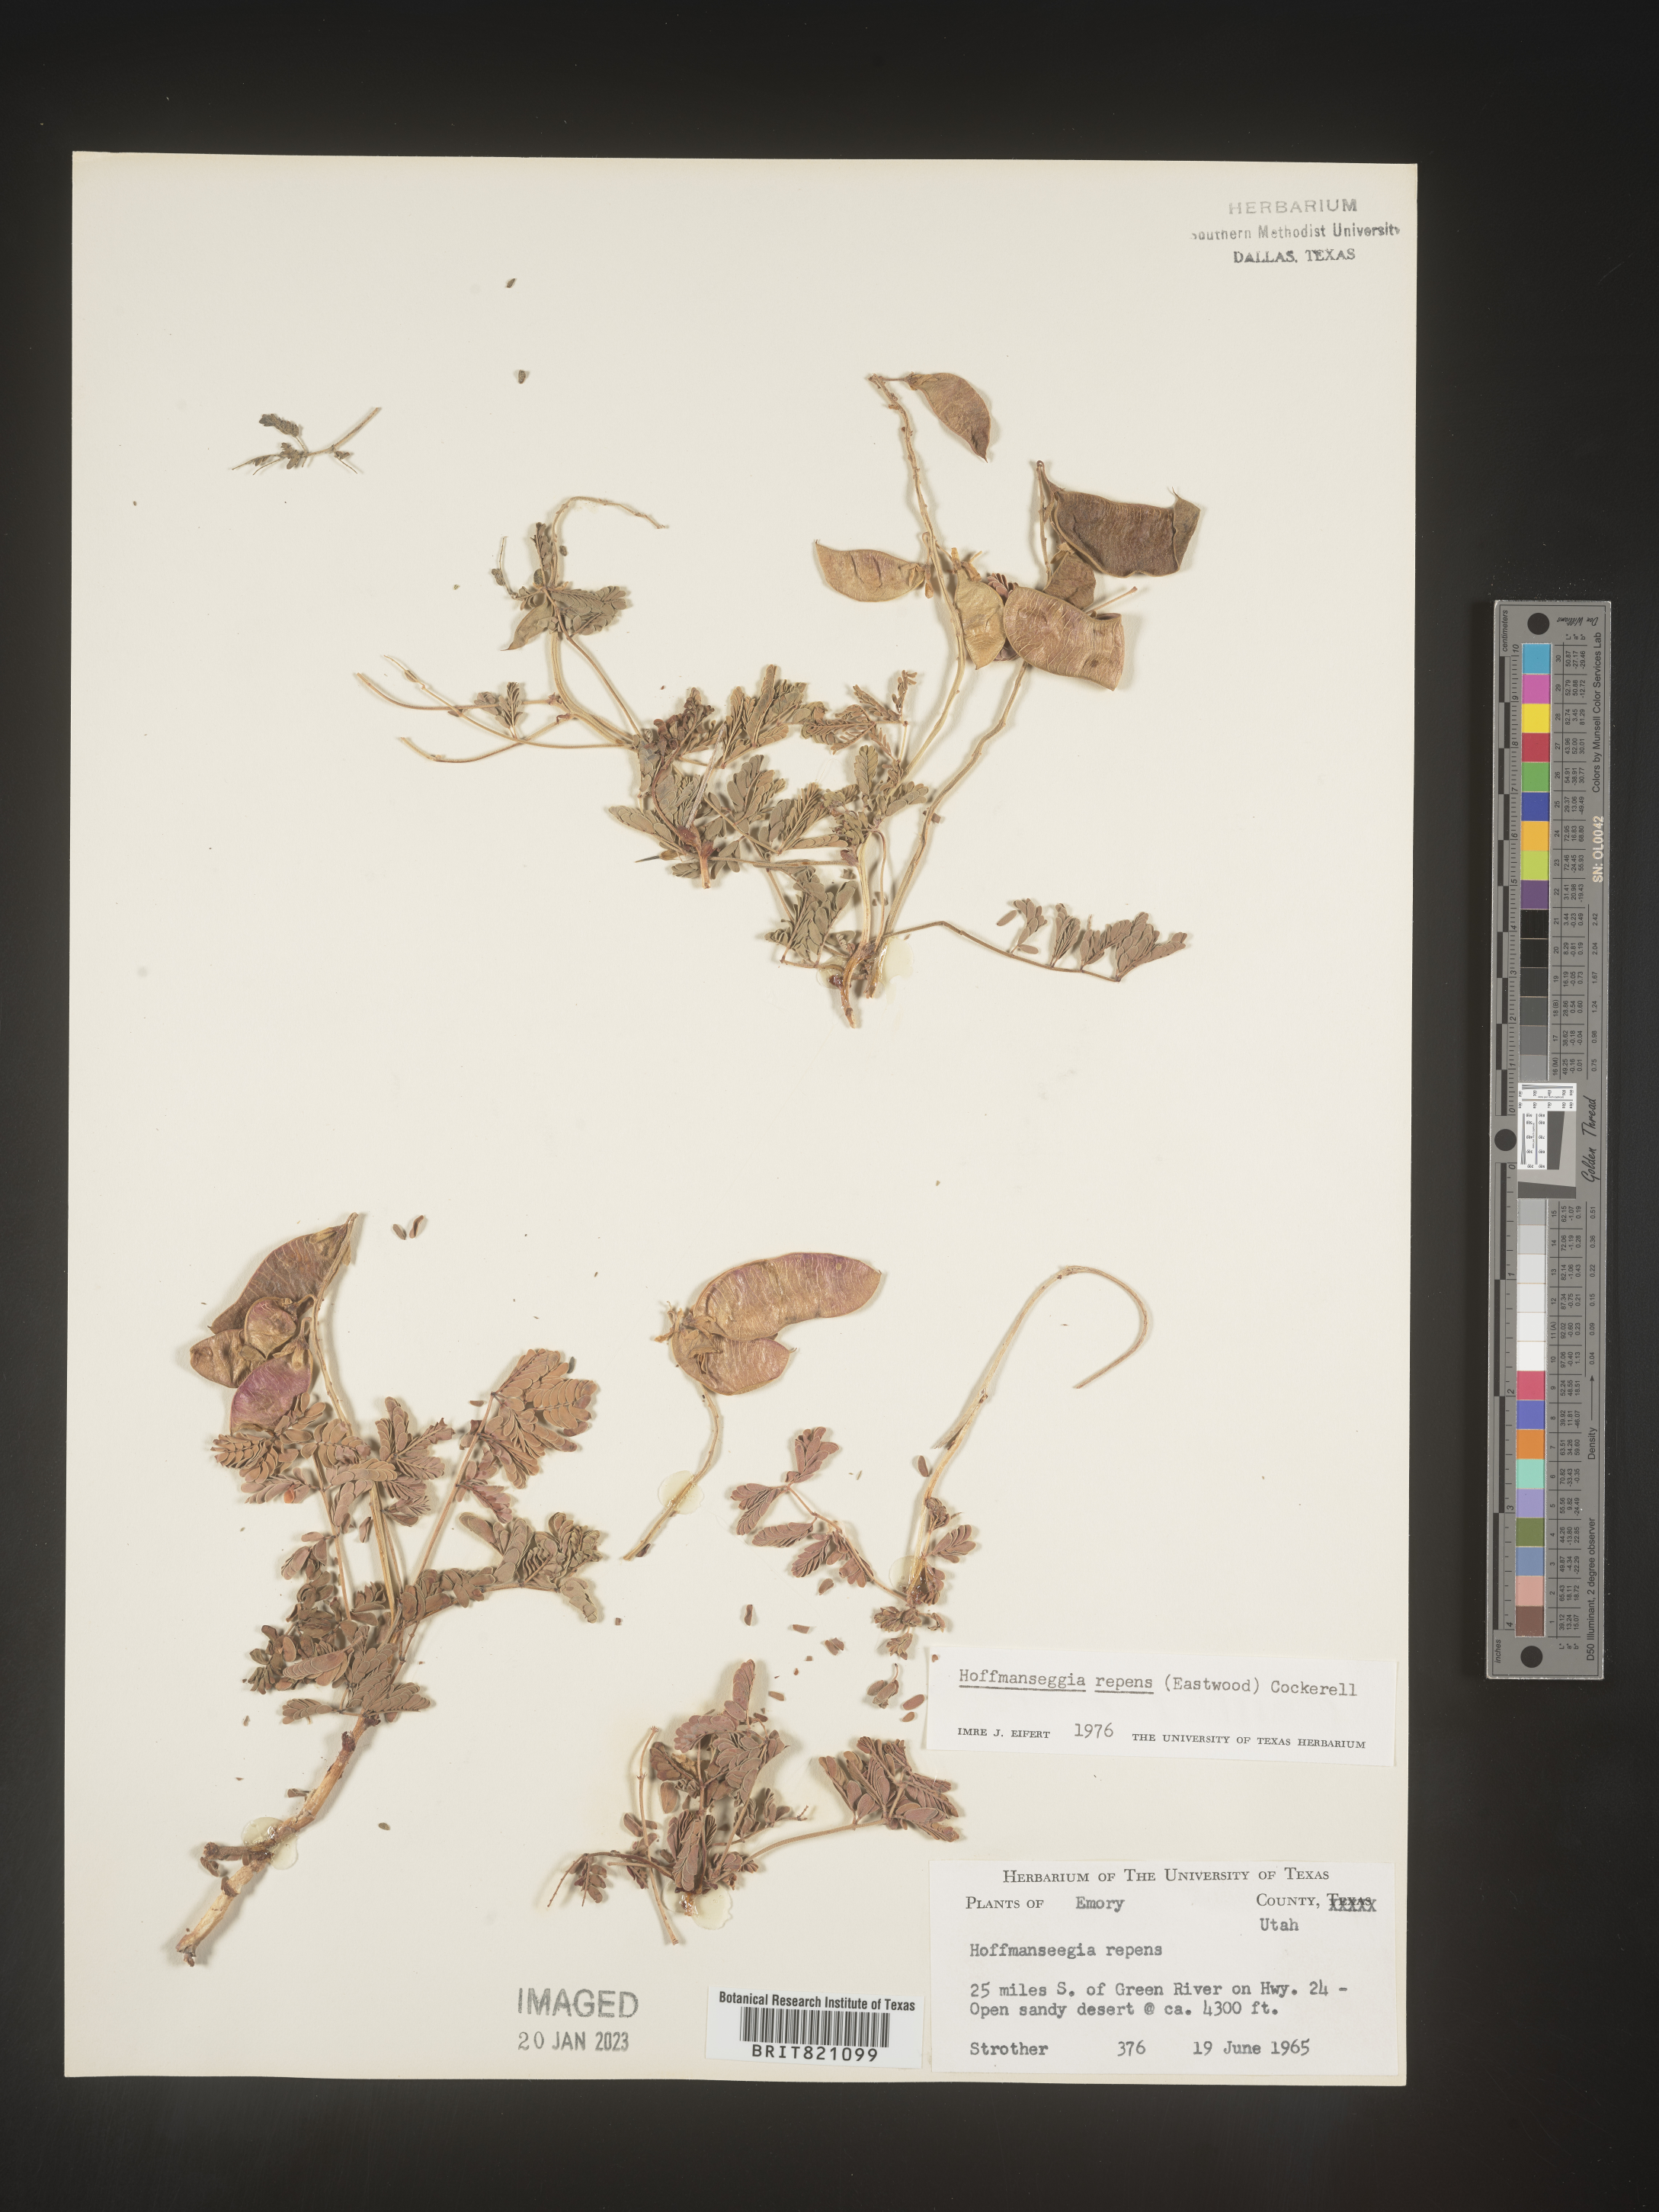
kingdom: Plantae
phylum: Tracheophyta
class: Magnoliopsida
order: Fabales
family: Fabaceae
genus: Hoffmannseggia
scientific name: Hoffmannseggia
